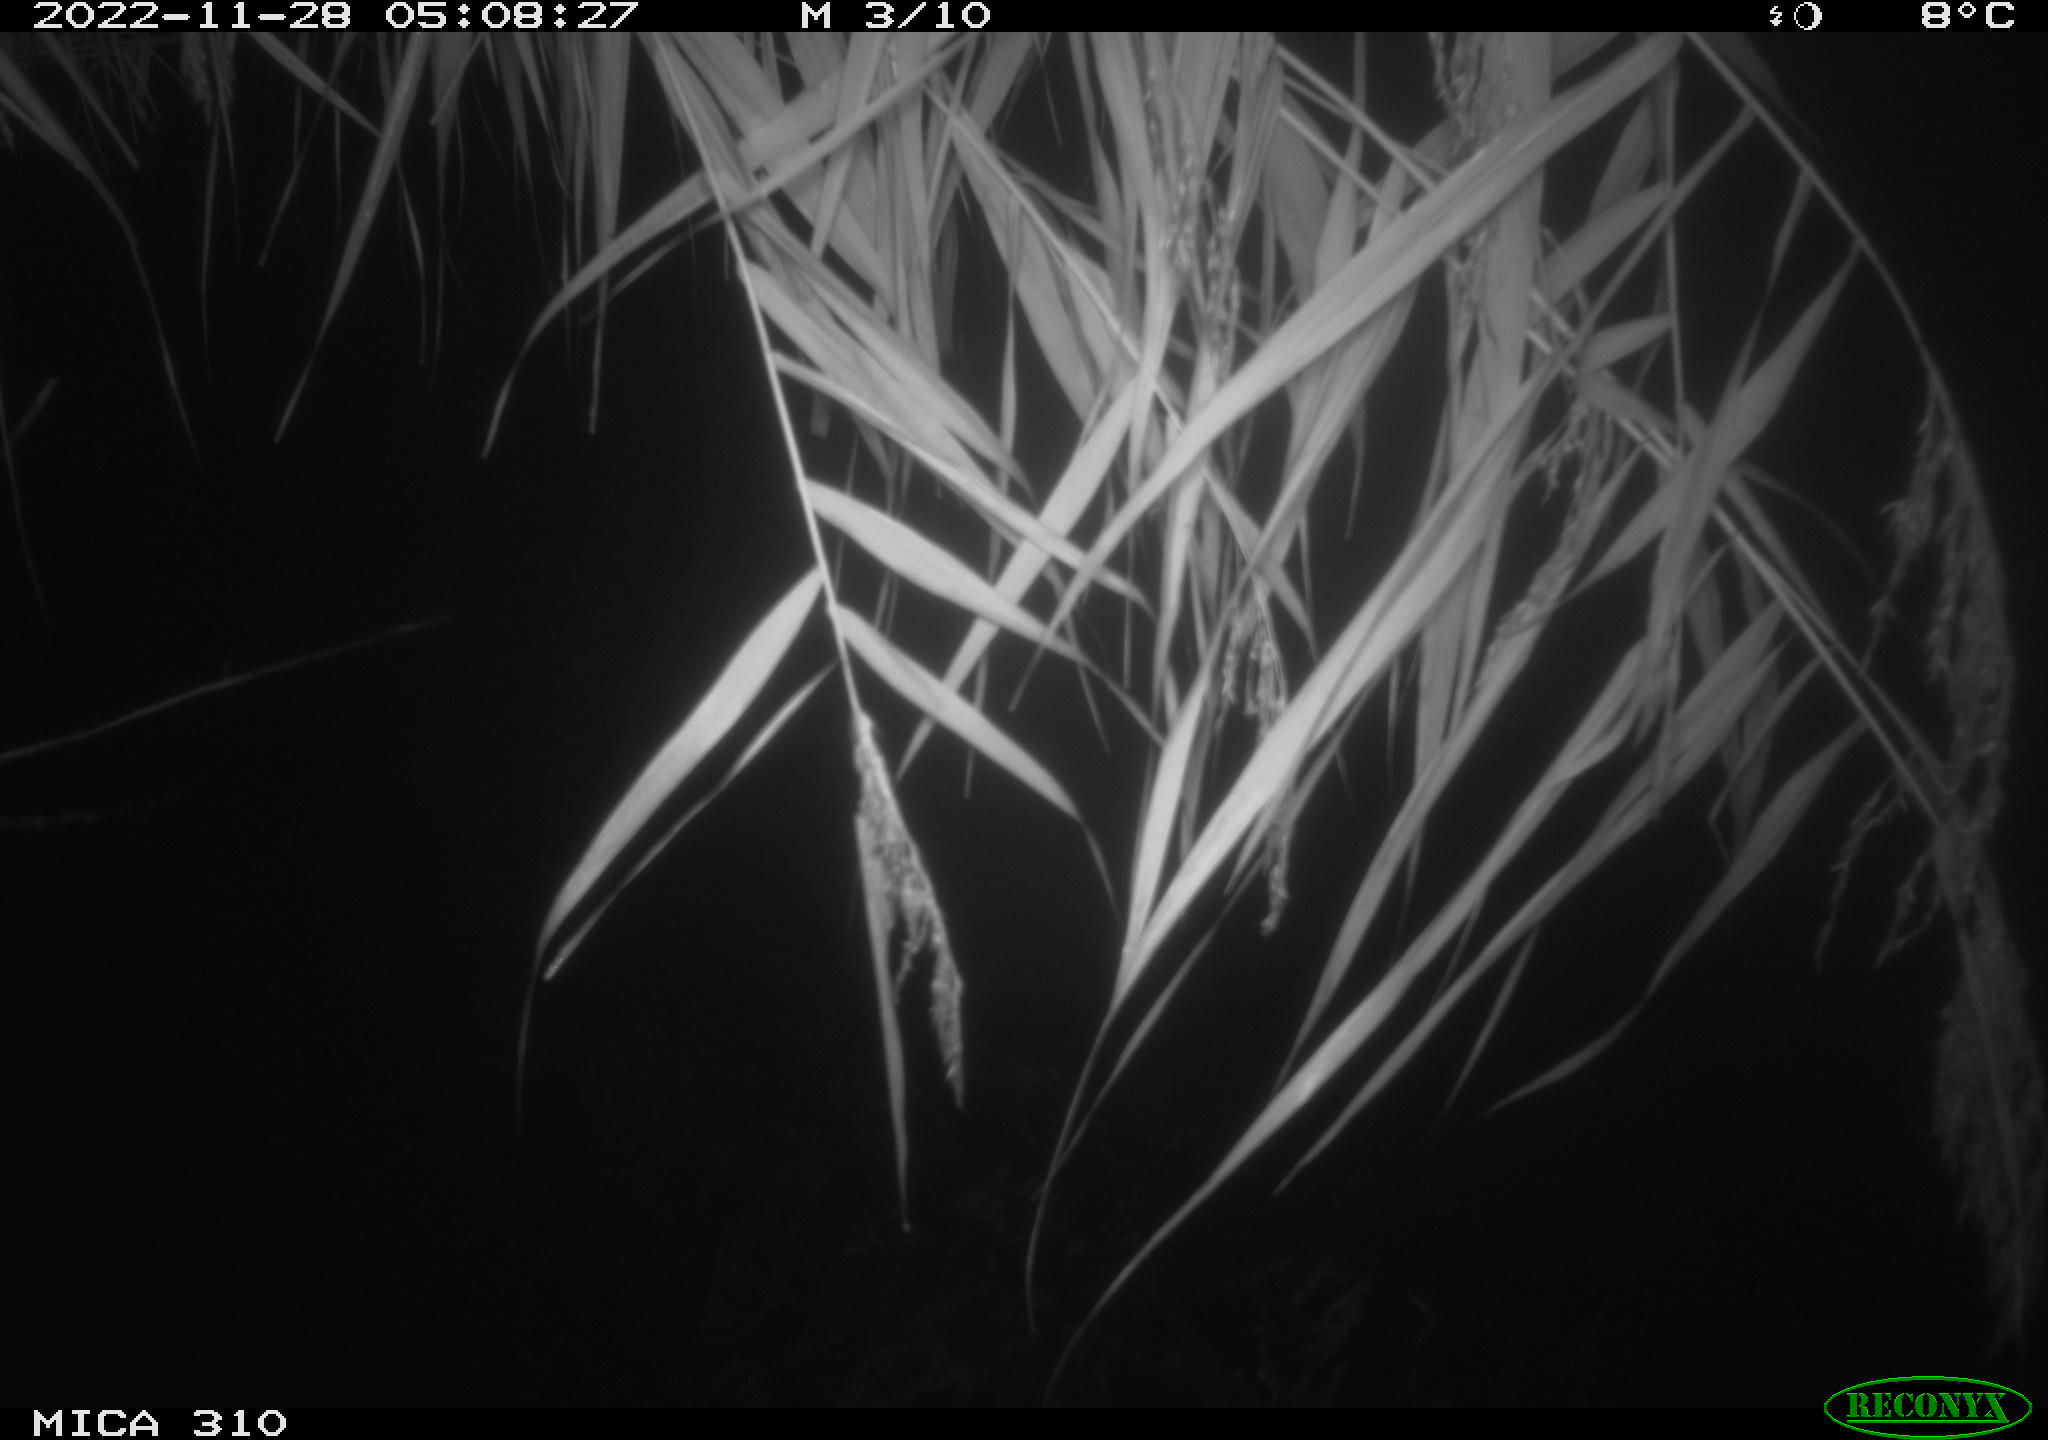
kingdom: Animalia
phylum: Chordata
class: Mammalia
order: Rodentia
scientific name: Rodentia
